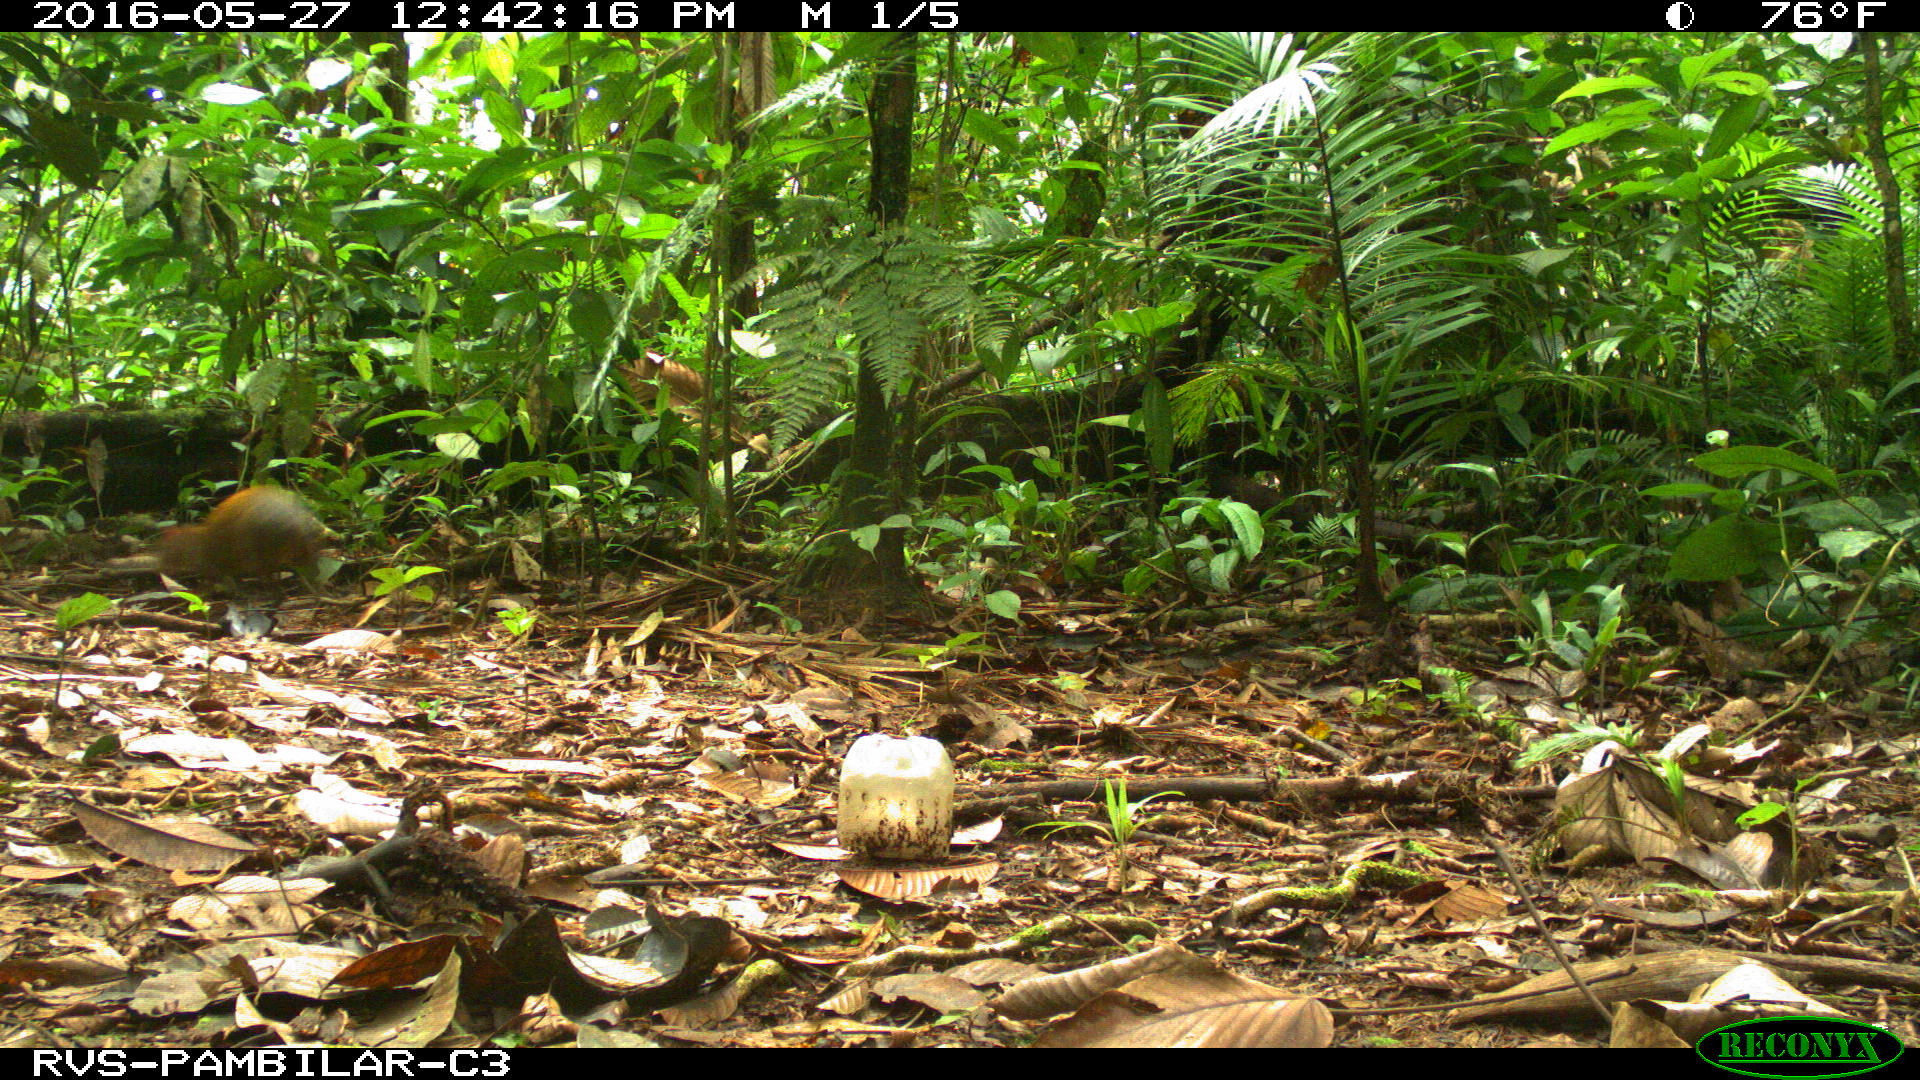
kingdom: Animalia
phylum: Chordata
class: Mammalia
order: Rodentia
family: Dasyproctidae
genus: Dasyprocta
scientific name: Dasyprocta punctata
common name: Central american agouti
